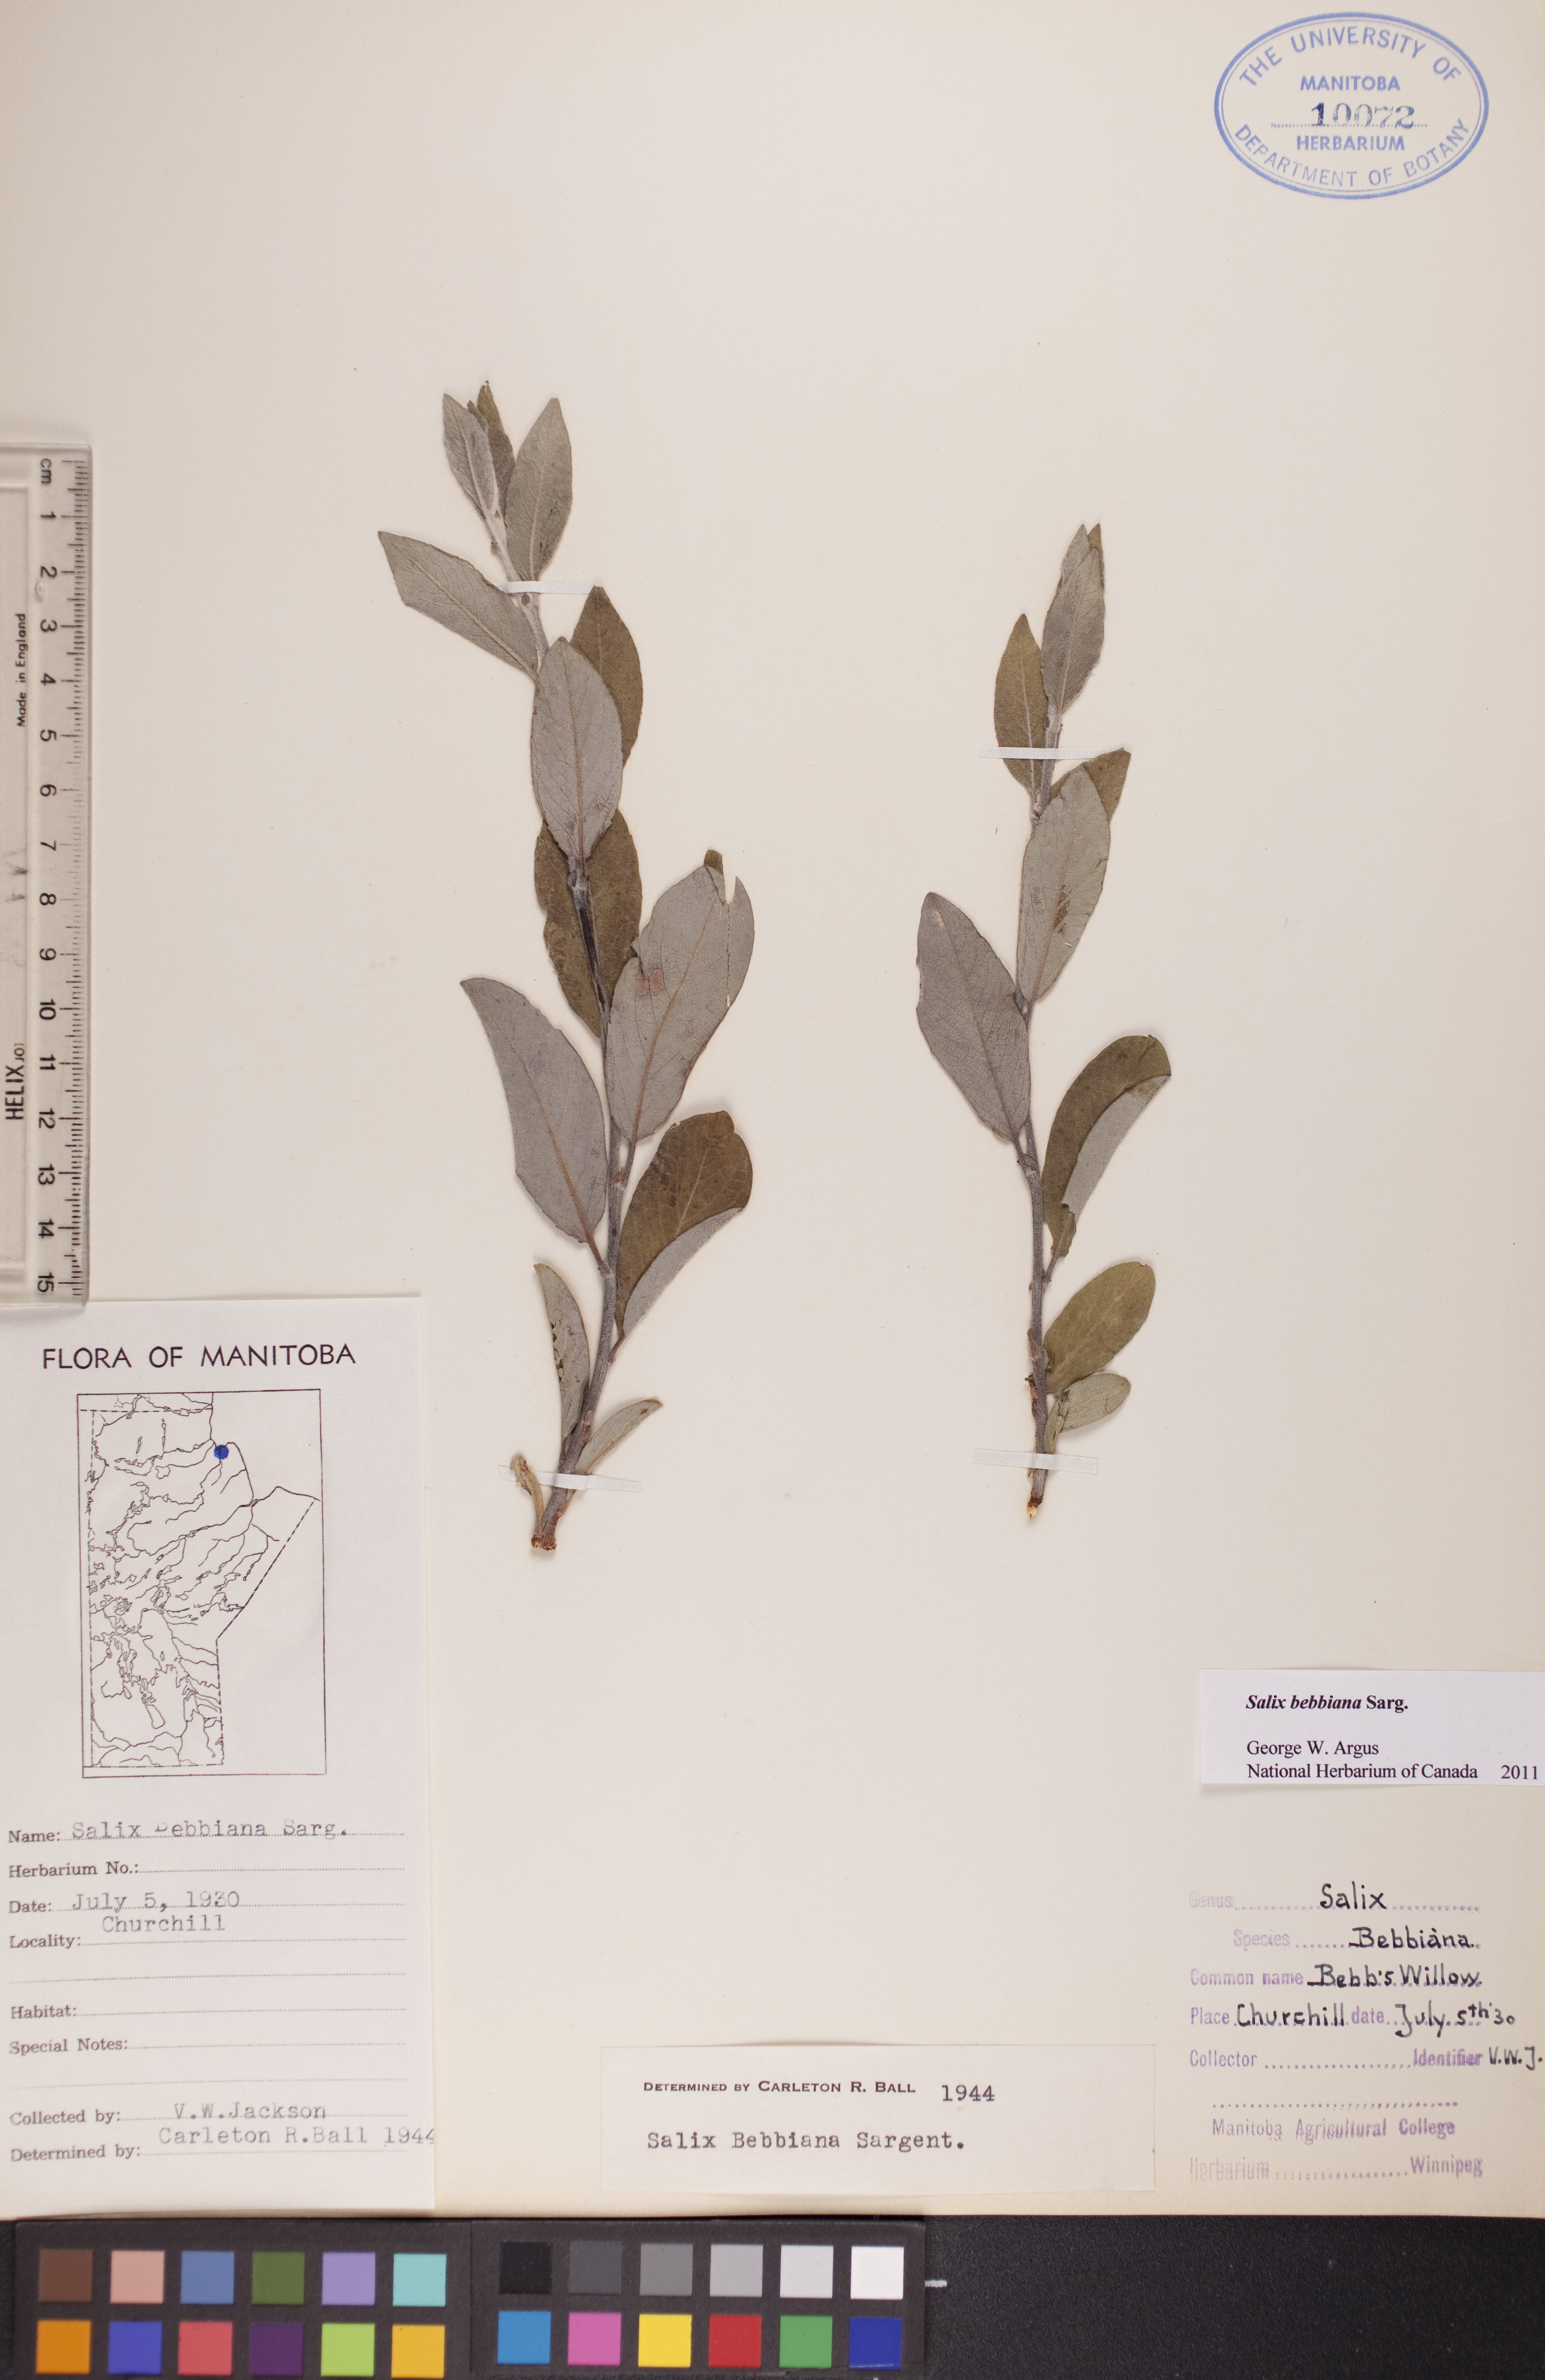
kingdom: Plantae
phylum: Tracheophyta
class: Magnoliopsida
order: Malpighiales
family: Salicaceae
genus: Salix
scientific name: Salix bebbiana
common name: Bebb's willow
